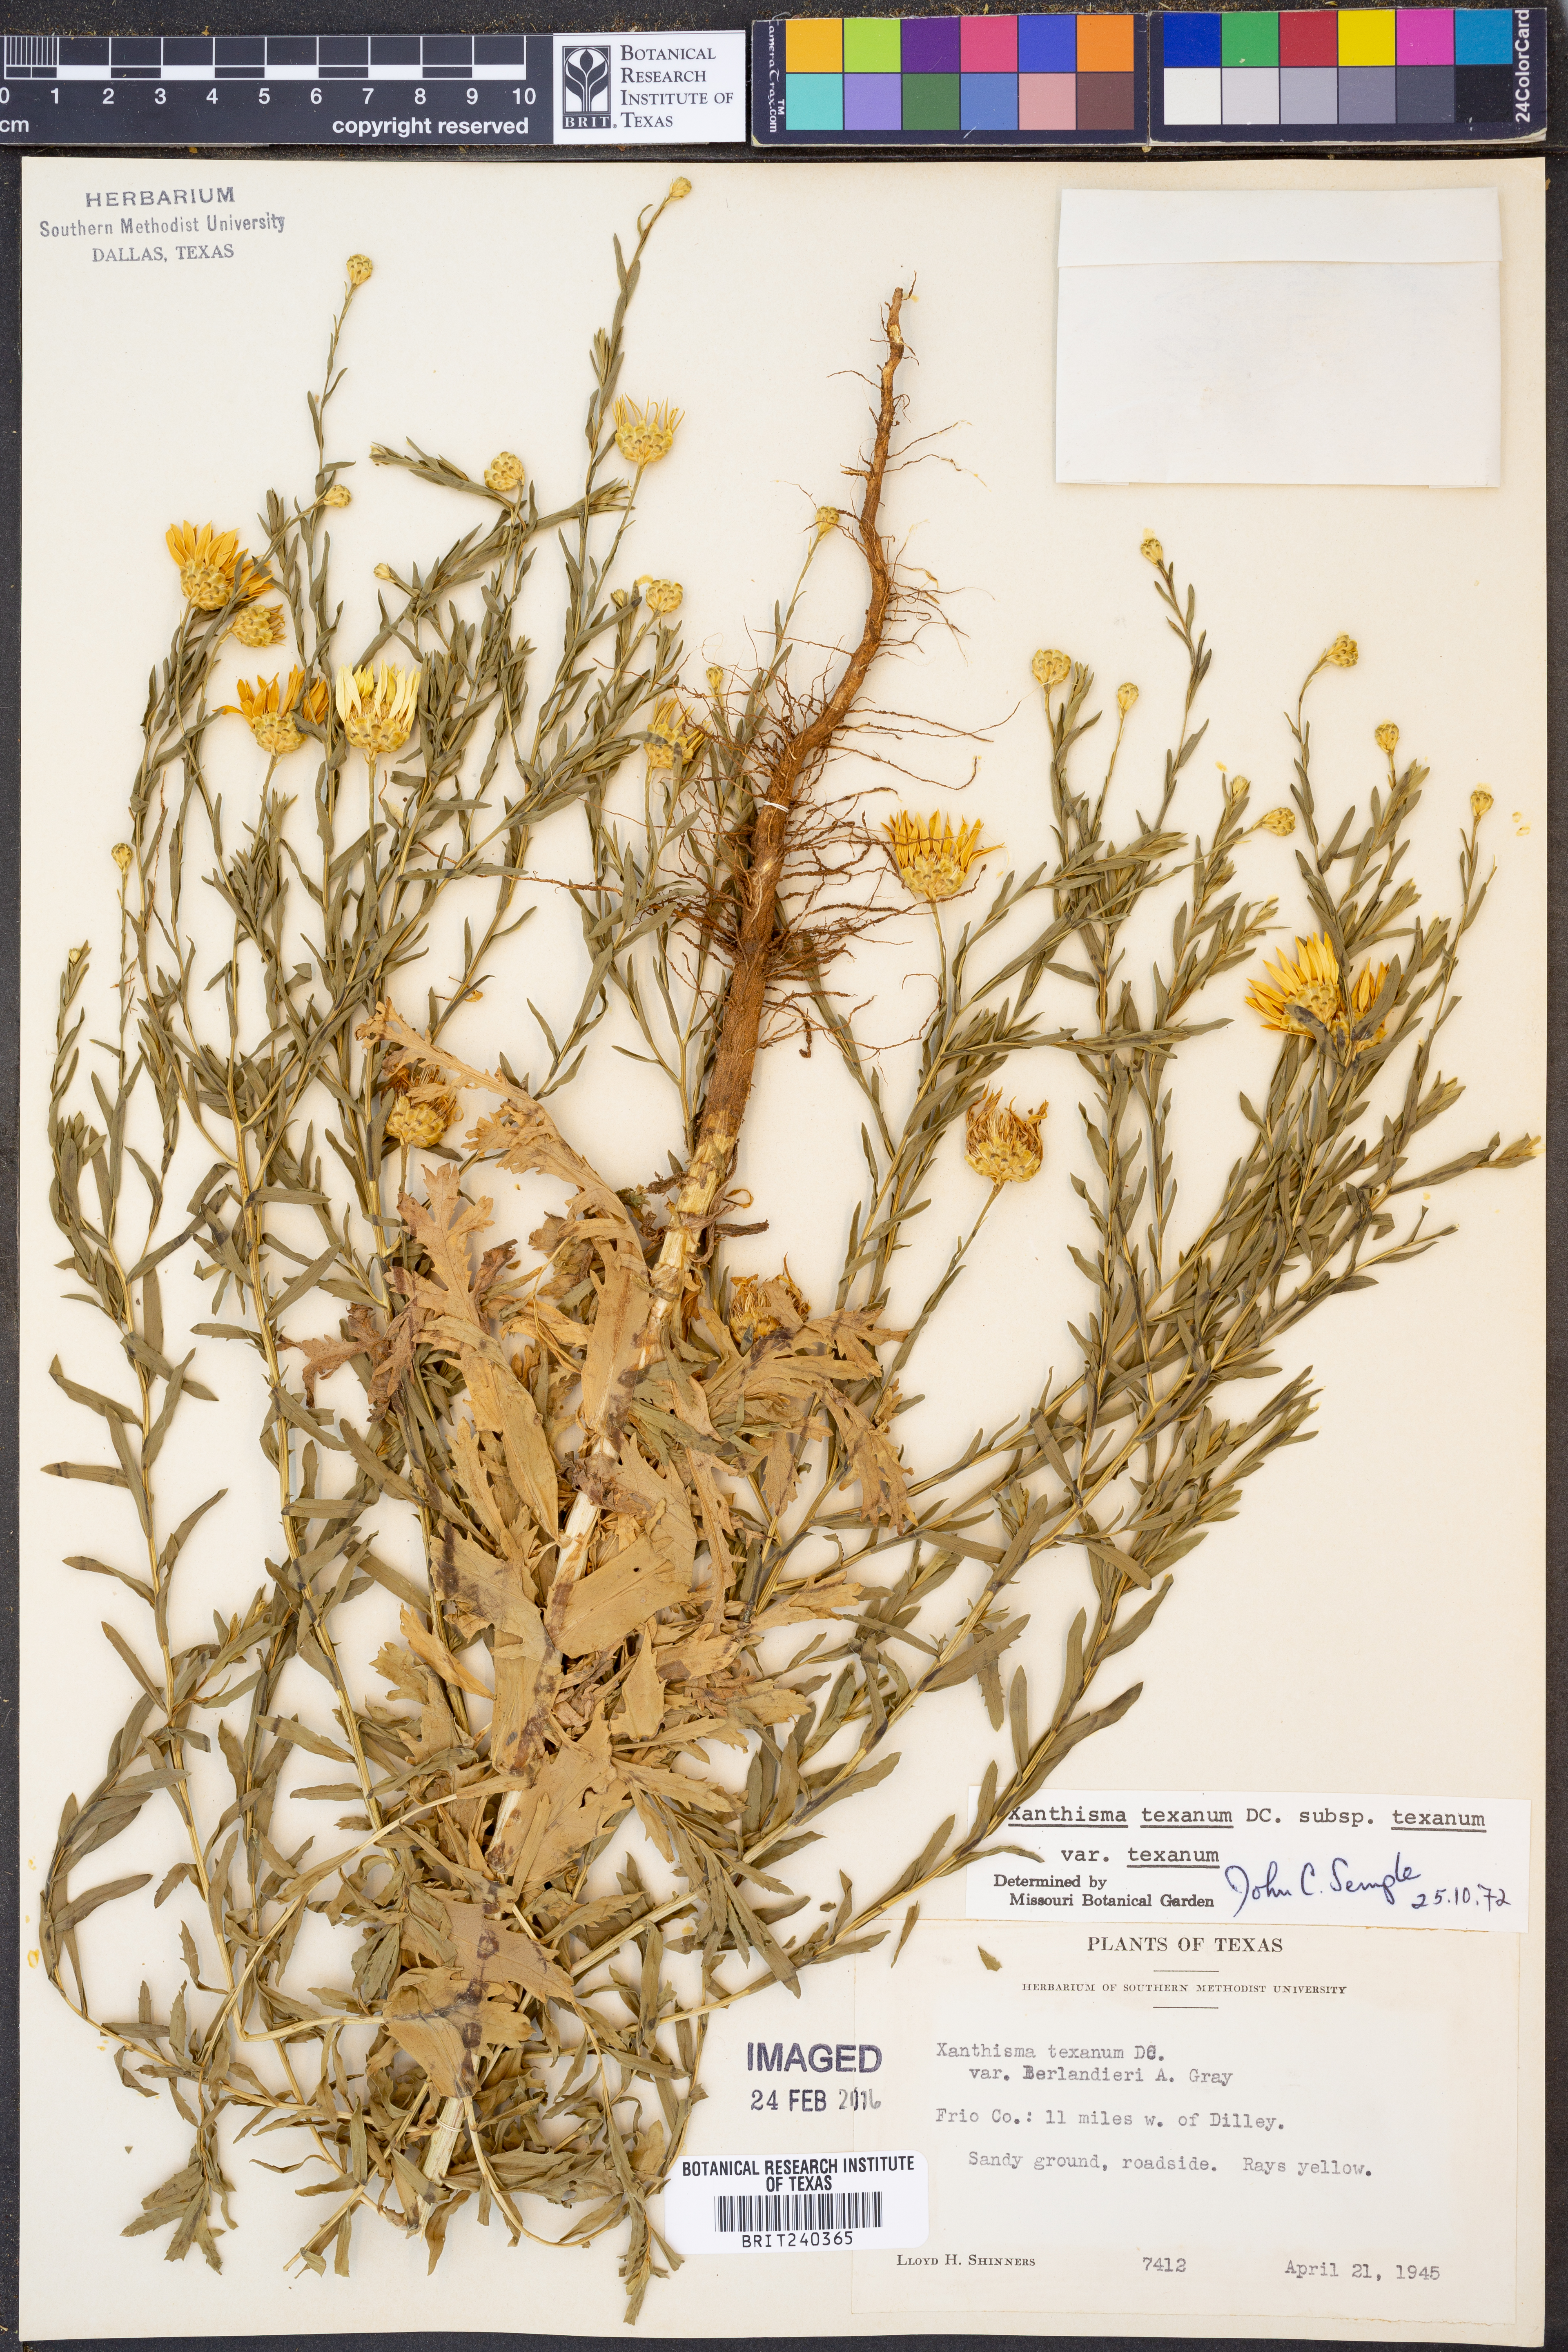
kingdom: Plantae
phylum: Tracheophyta
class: Magnoliopsida
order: Asterales
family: Asteraceae
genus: Xanthisma
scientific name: Xanthisma texanum
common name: Texas sleepy daisy
